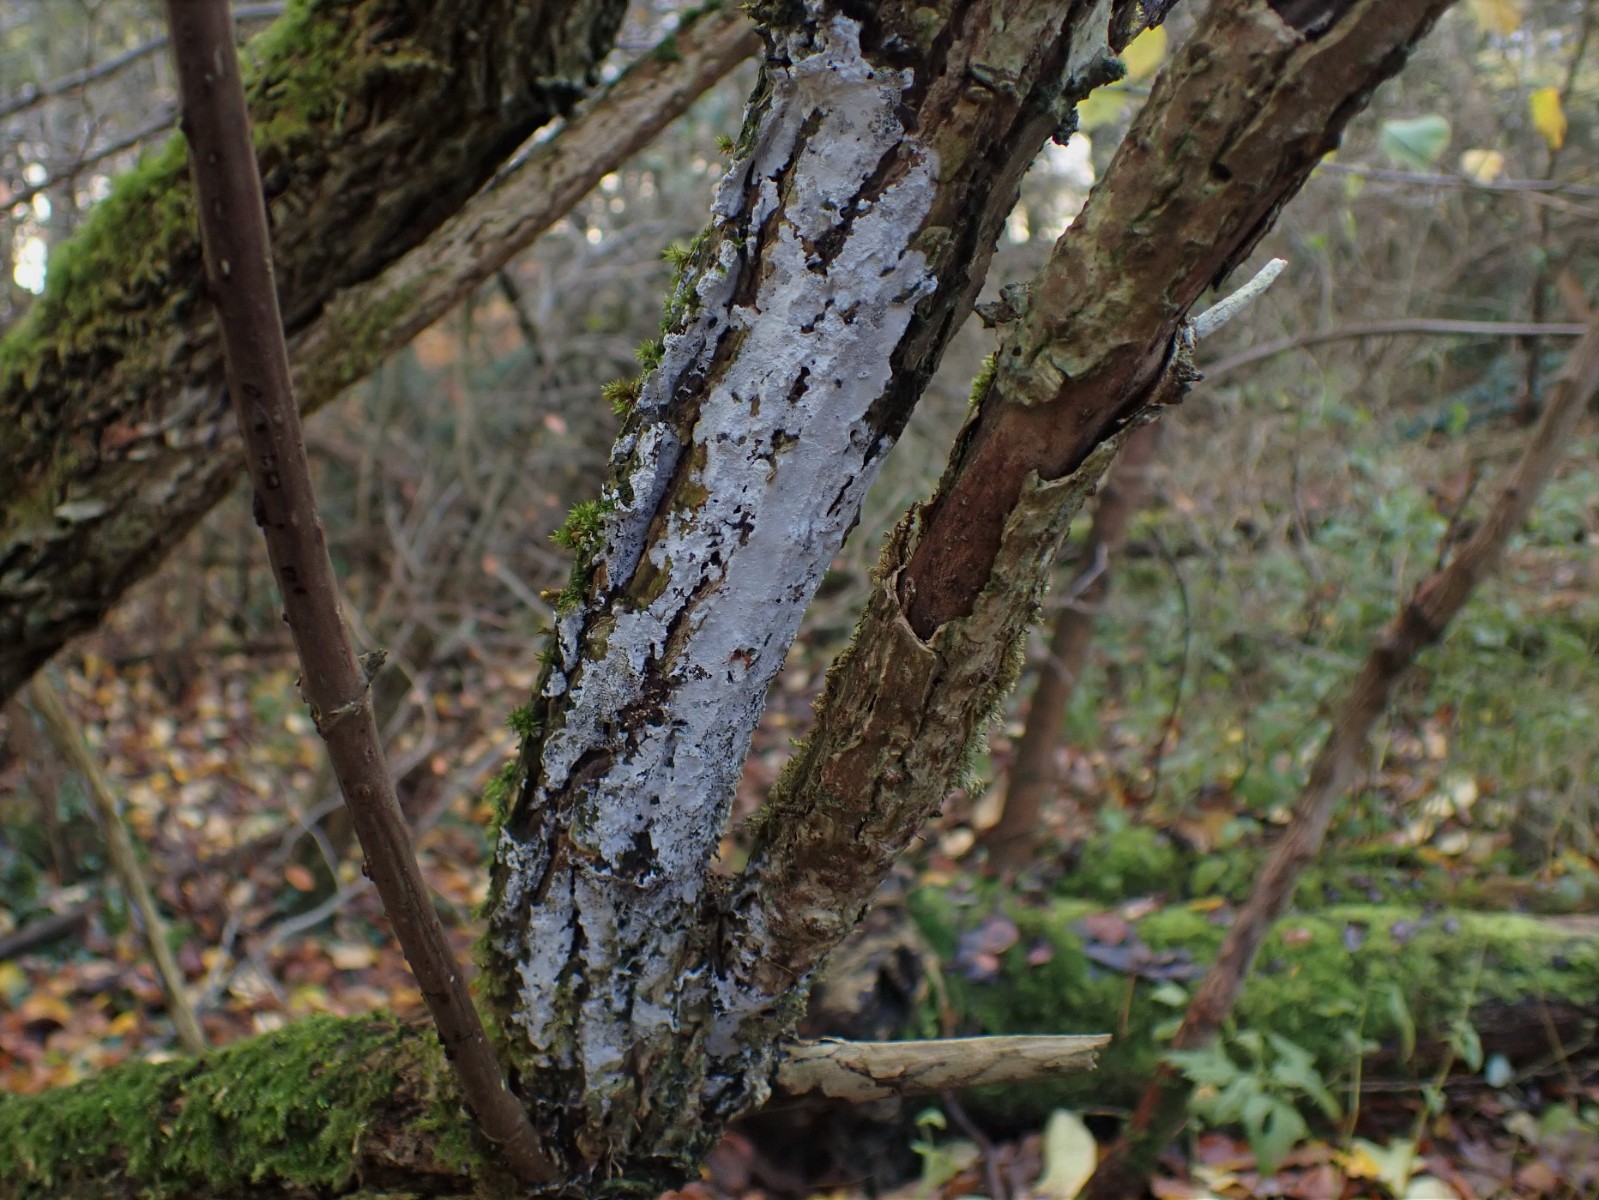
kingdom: Fungi
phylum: Basidiomycota
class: Agaricomycetes
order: Corticiales
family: Corticiaceae
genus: Lyomyces
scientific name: Lyomyces sambuci
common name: almindelig hyldehinde
